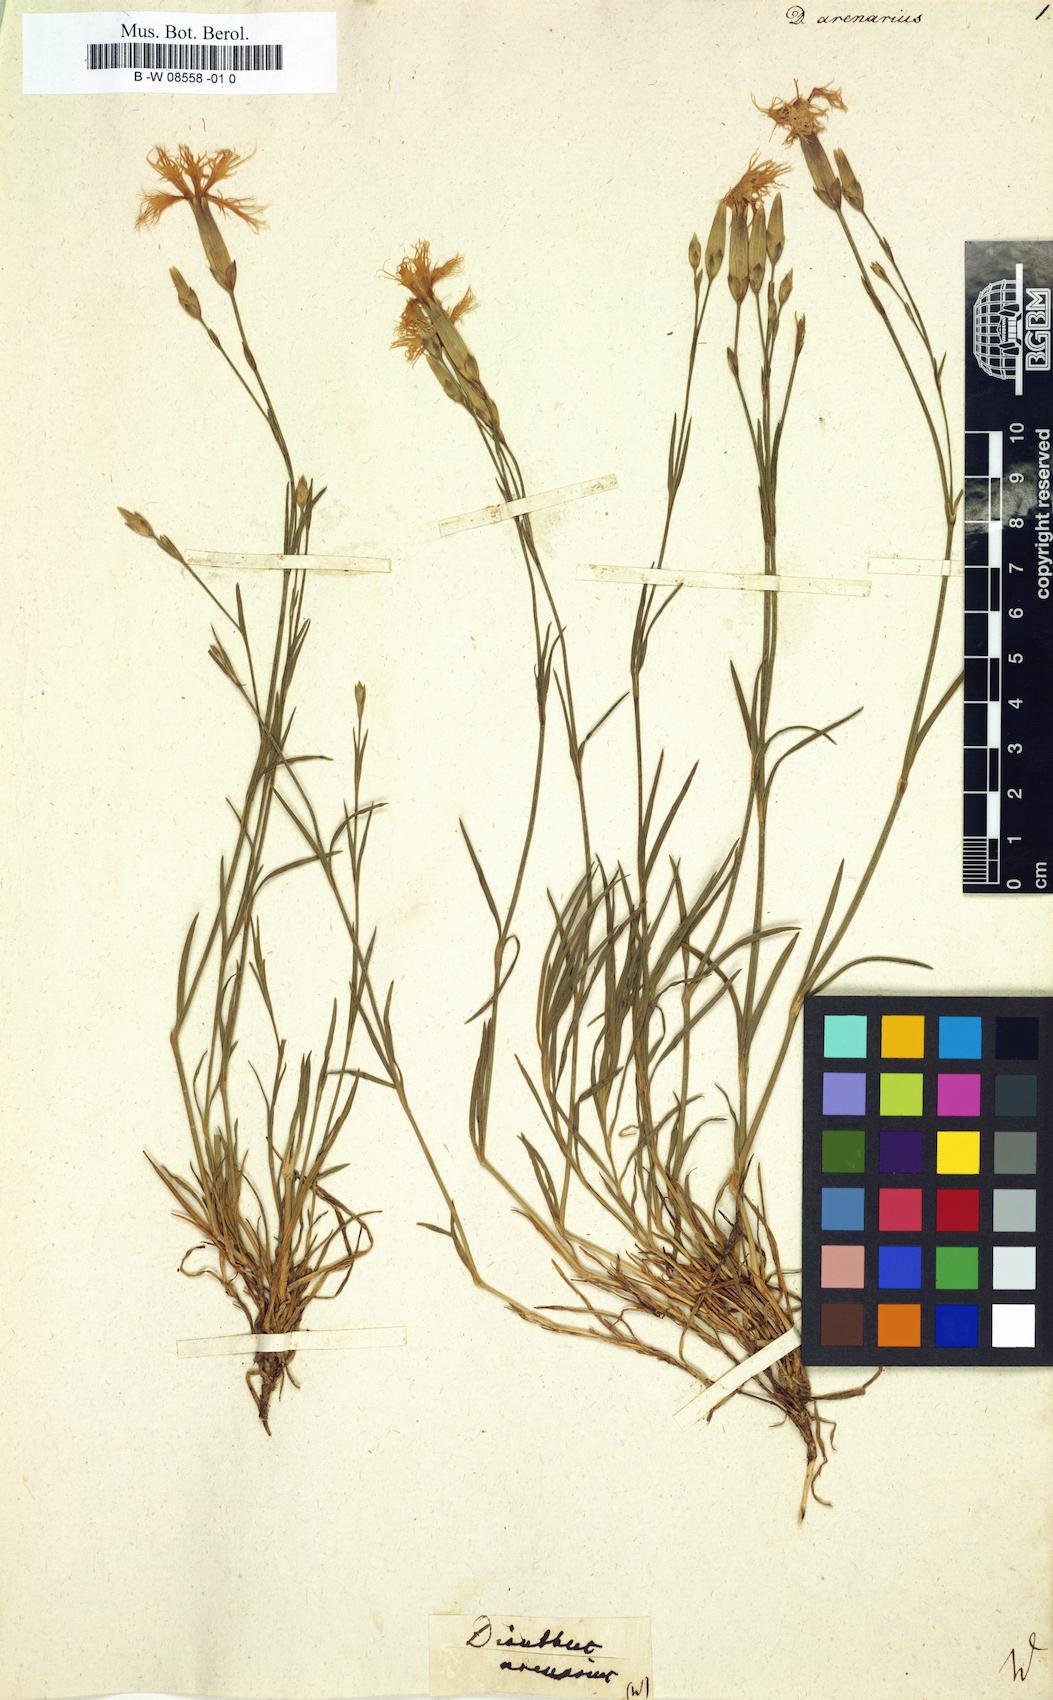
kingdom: Plantae
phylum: Tracheophyta
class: Magnoliopsida
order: Caryophyllales
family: Caryophyllaceae
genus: Dianthus
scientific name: Dianthus arenarius
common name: Stone pink
